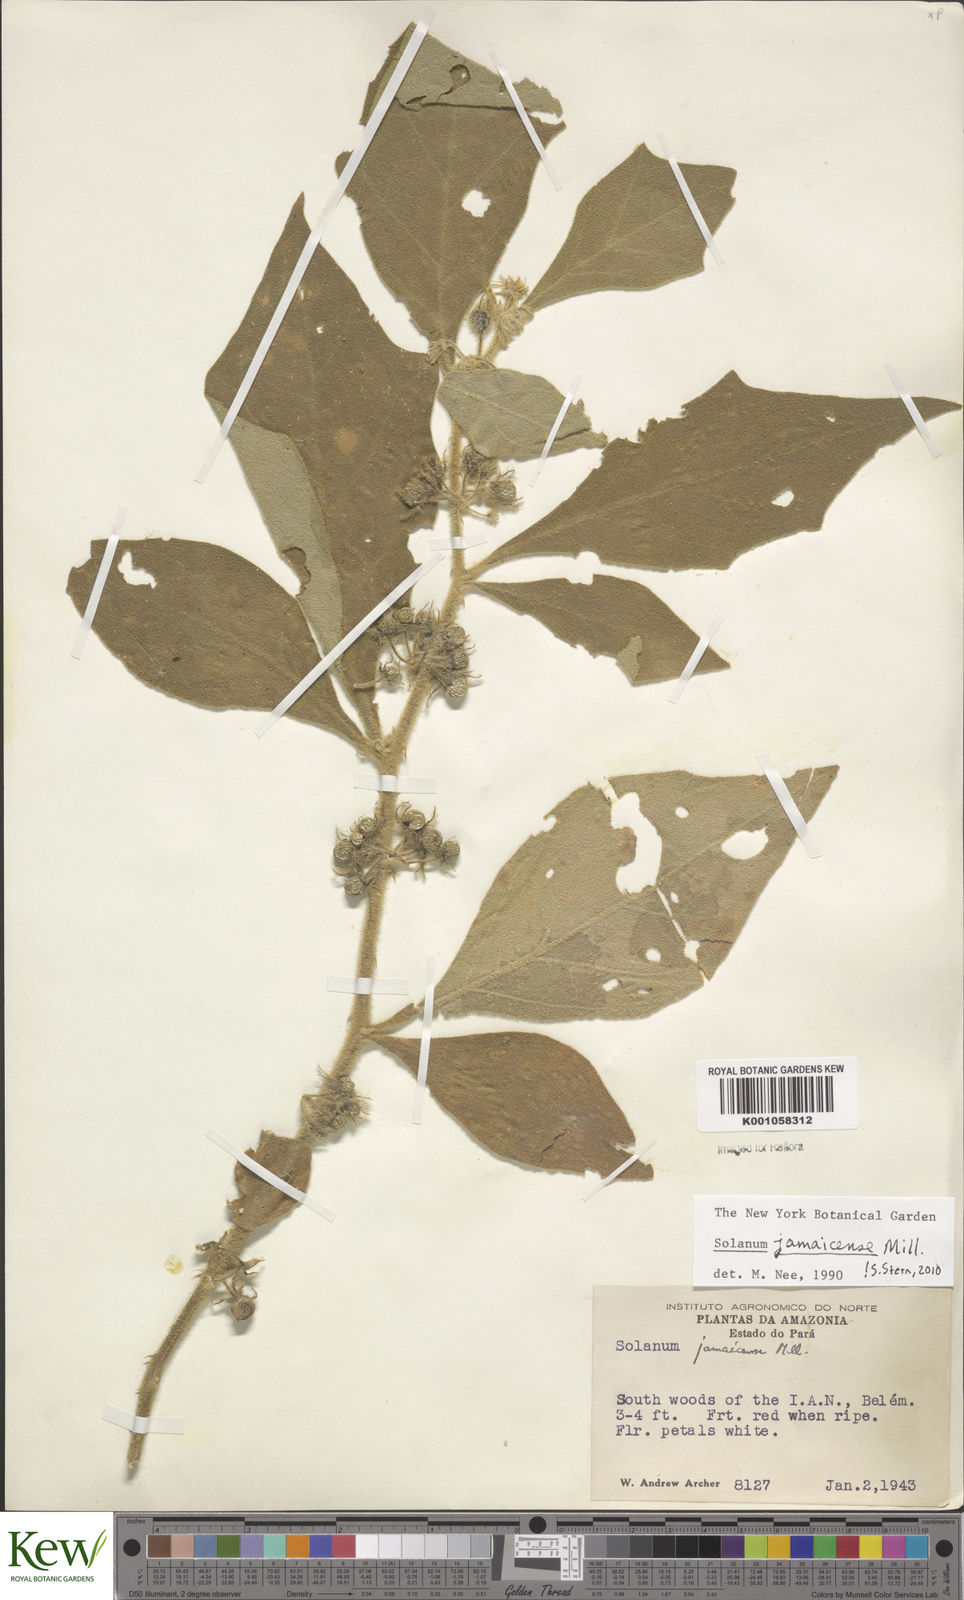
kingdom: Plantae
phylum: Tracheophyta
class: Magnoliopsida
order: Solanales
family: Solanaceae
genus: Solanum
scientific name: Solanum jamaicense
